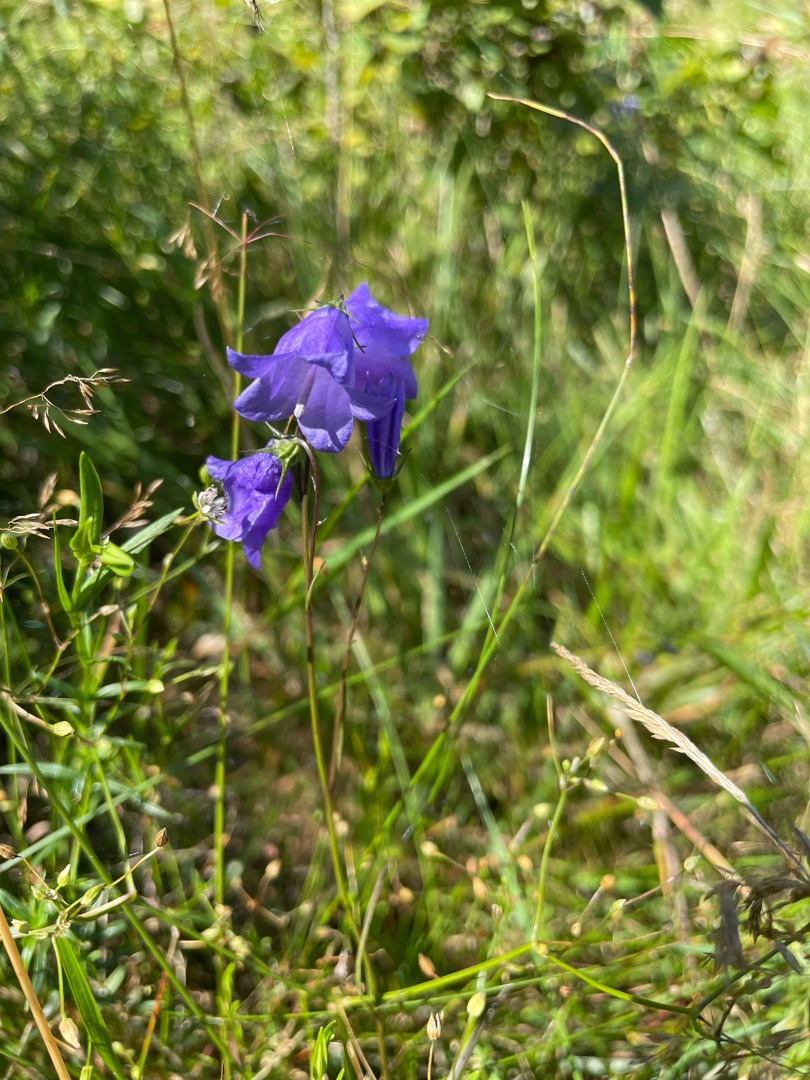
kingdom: Plantae
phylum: Tracheophyta
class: Magnoliopsida
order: Asterales
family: Campanulaceae
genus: Campanula
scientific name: Campanula rotundifolia
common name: Liden klokke
